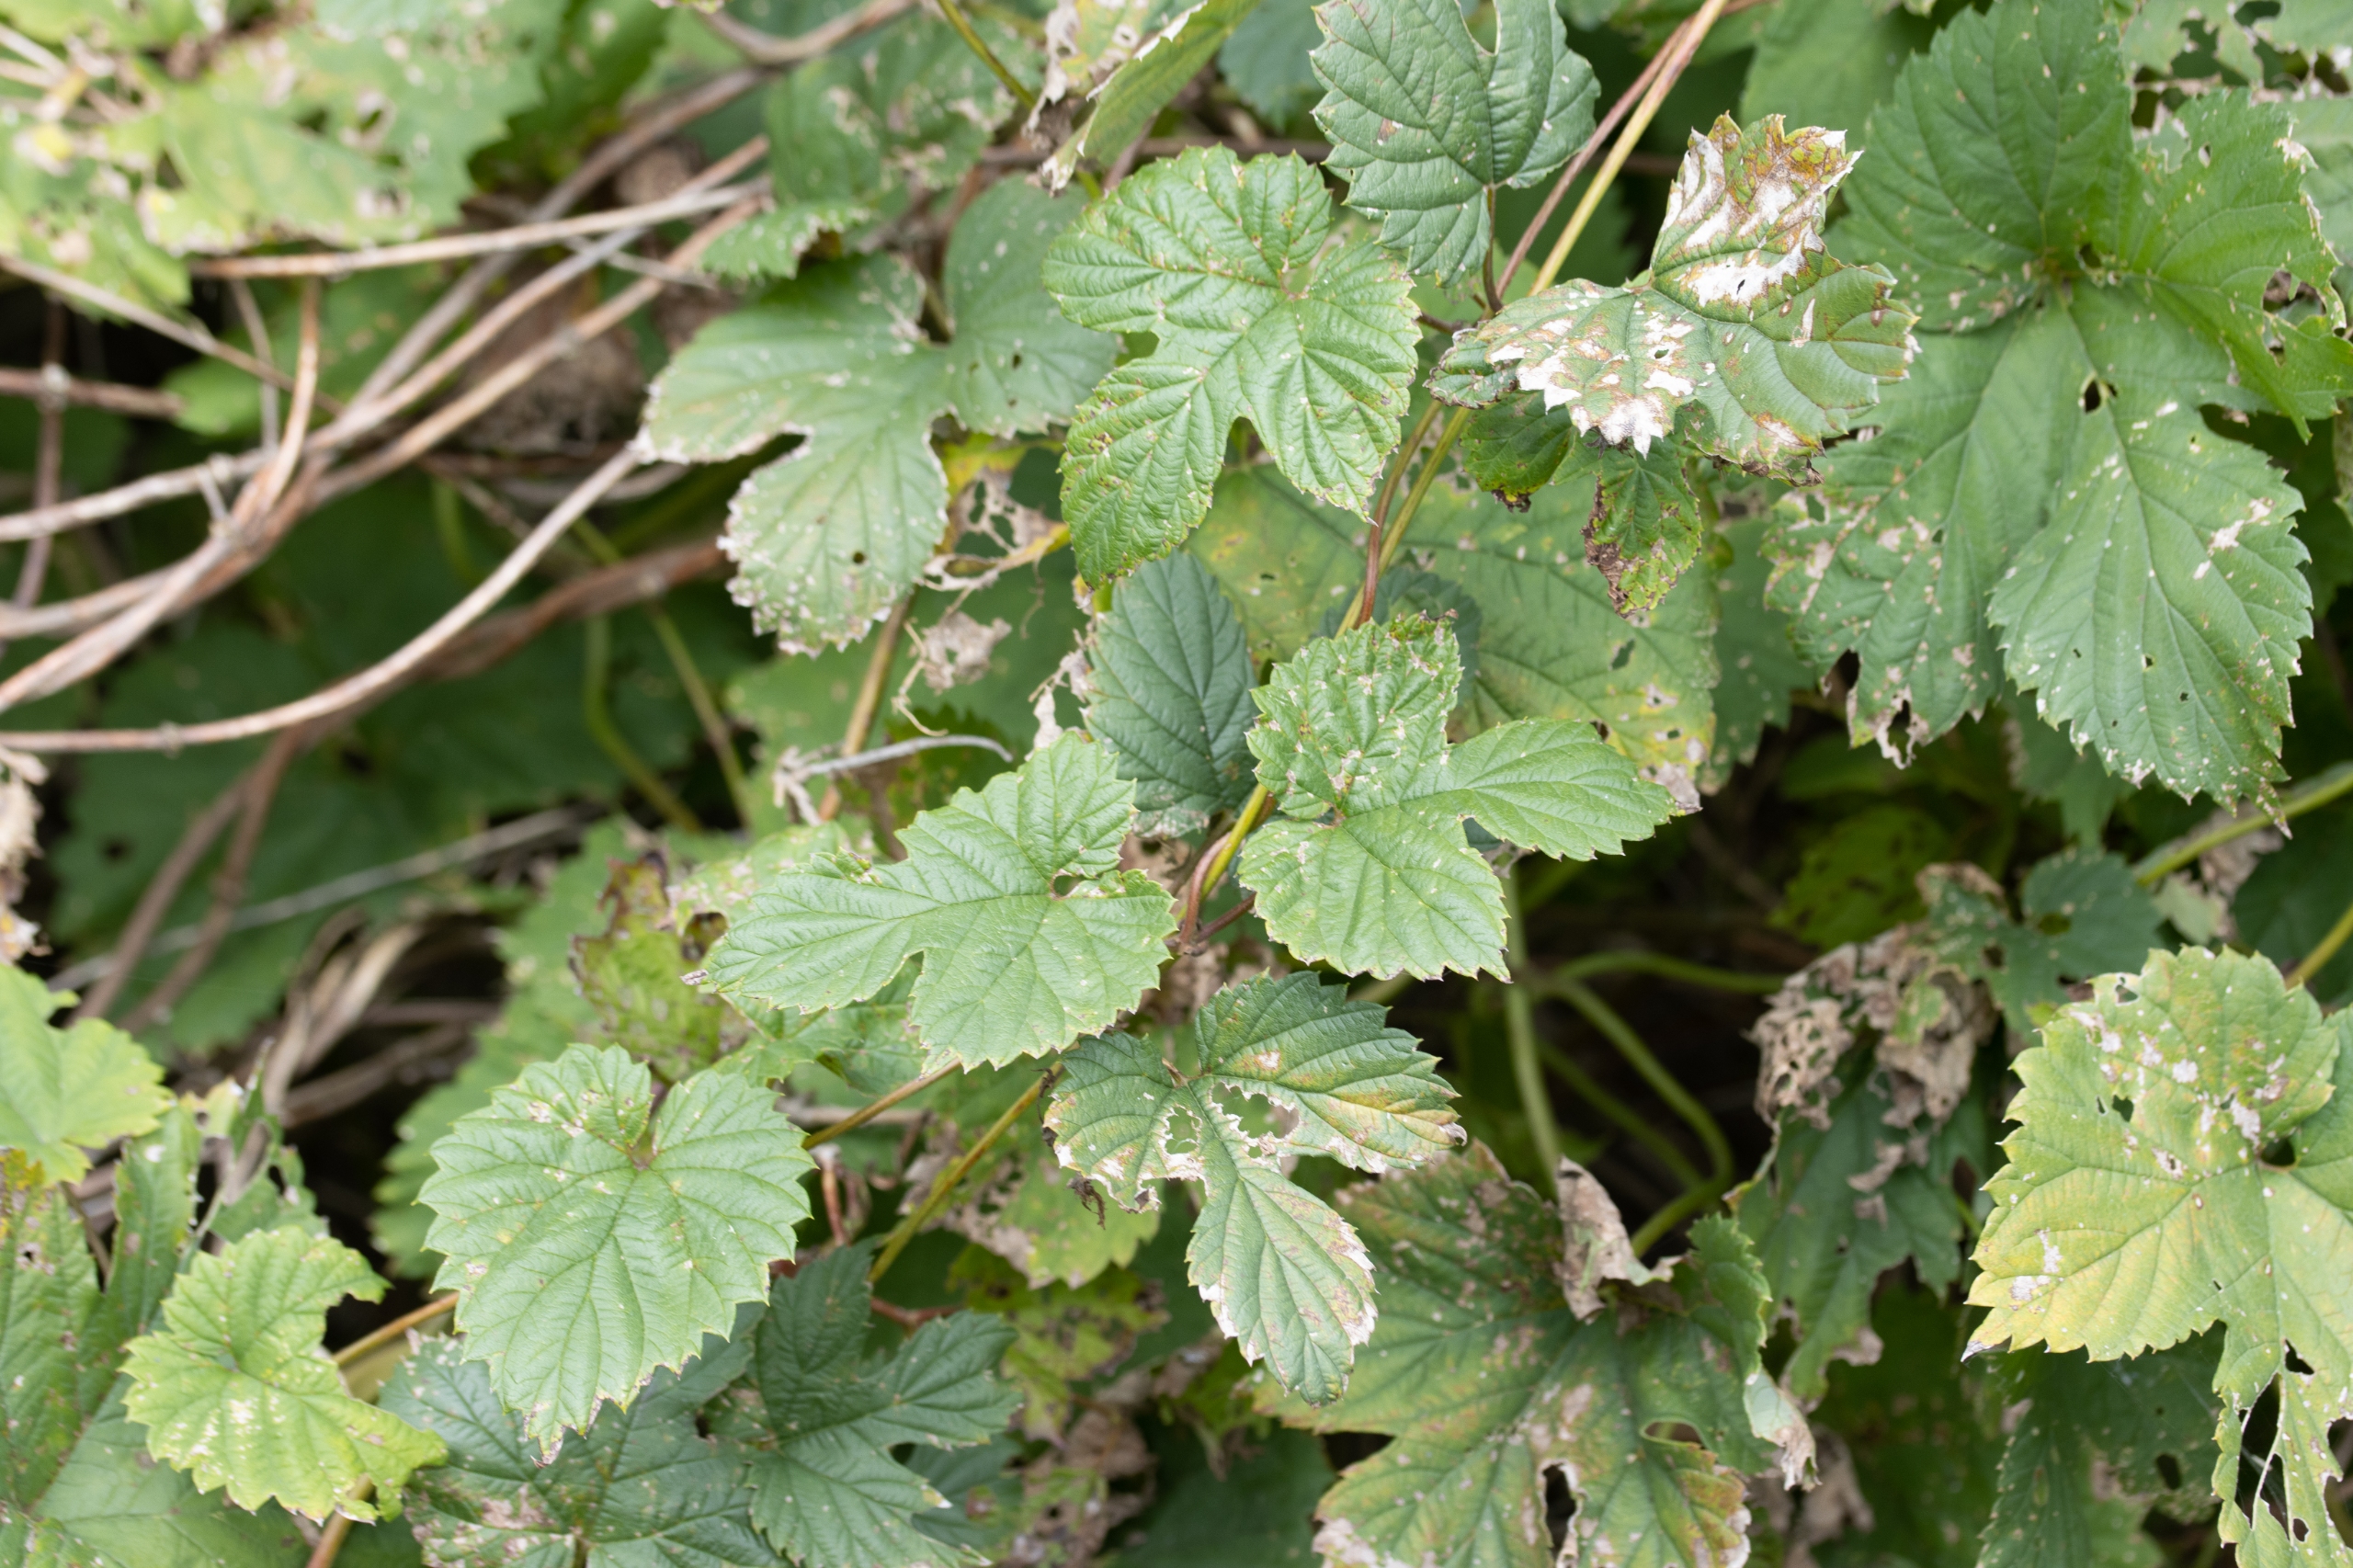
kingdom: Plantae
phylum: Tracheophyta
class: Magnoliopsida
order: Rosales
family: Cannabaceae
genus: Humulus
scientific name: Humulus lupulus
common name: Humle
